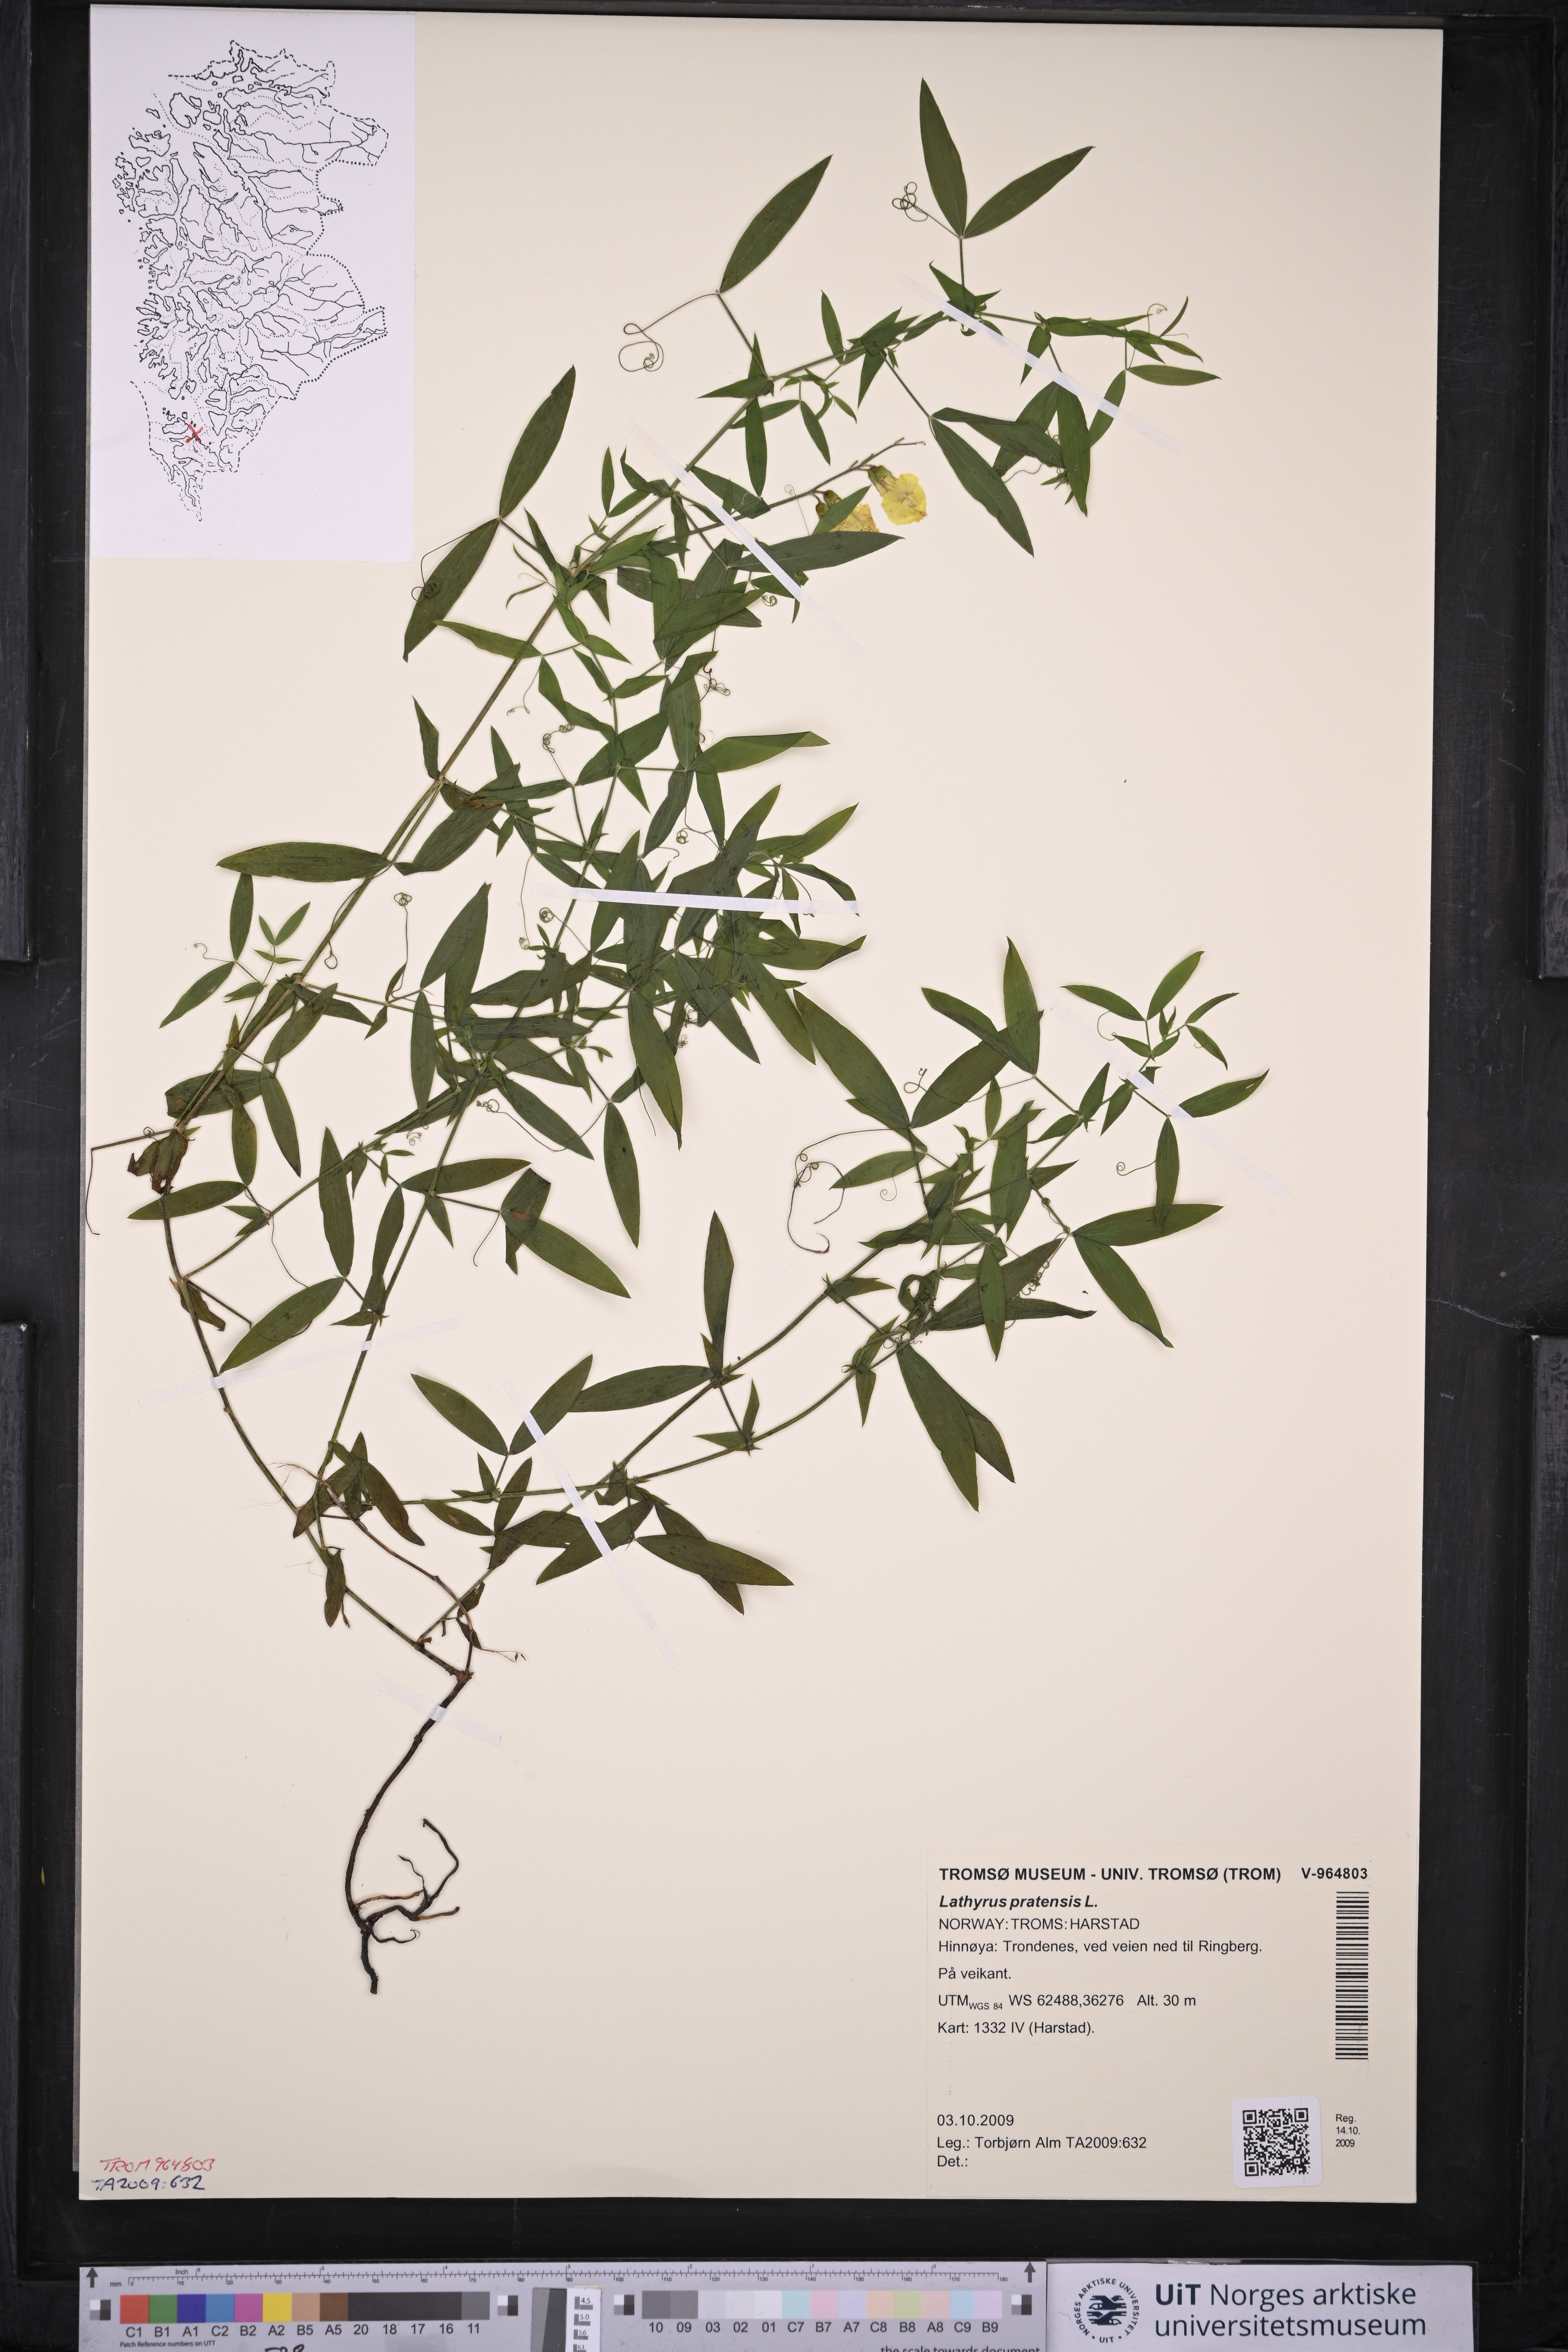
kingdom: Plantae
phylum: Tracheophyta
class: Magnoliopsida
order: Fabales
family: Fabaceae
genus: Lathyrus
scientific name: Lathyrus pratensis
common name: Meadow vetchling
